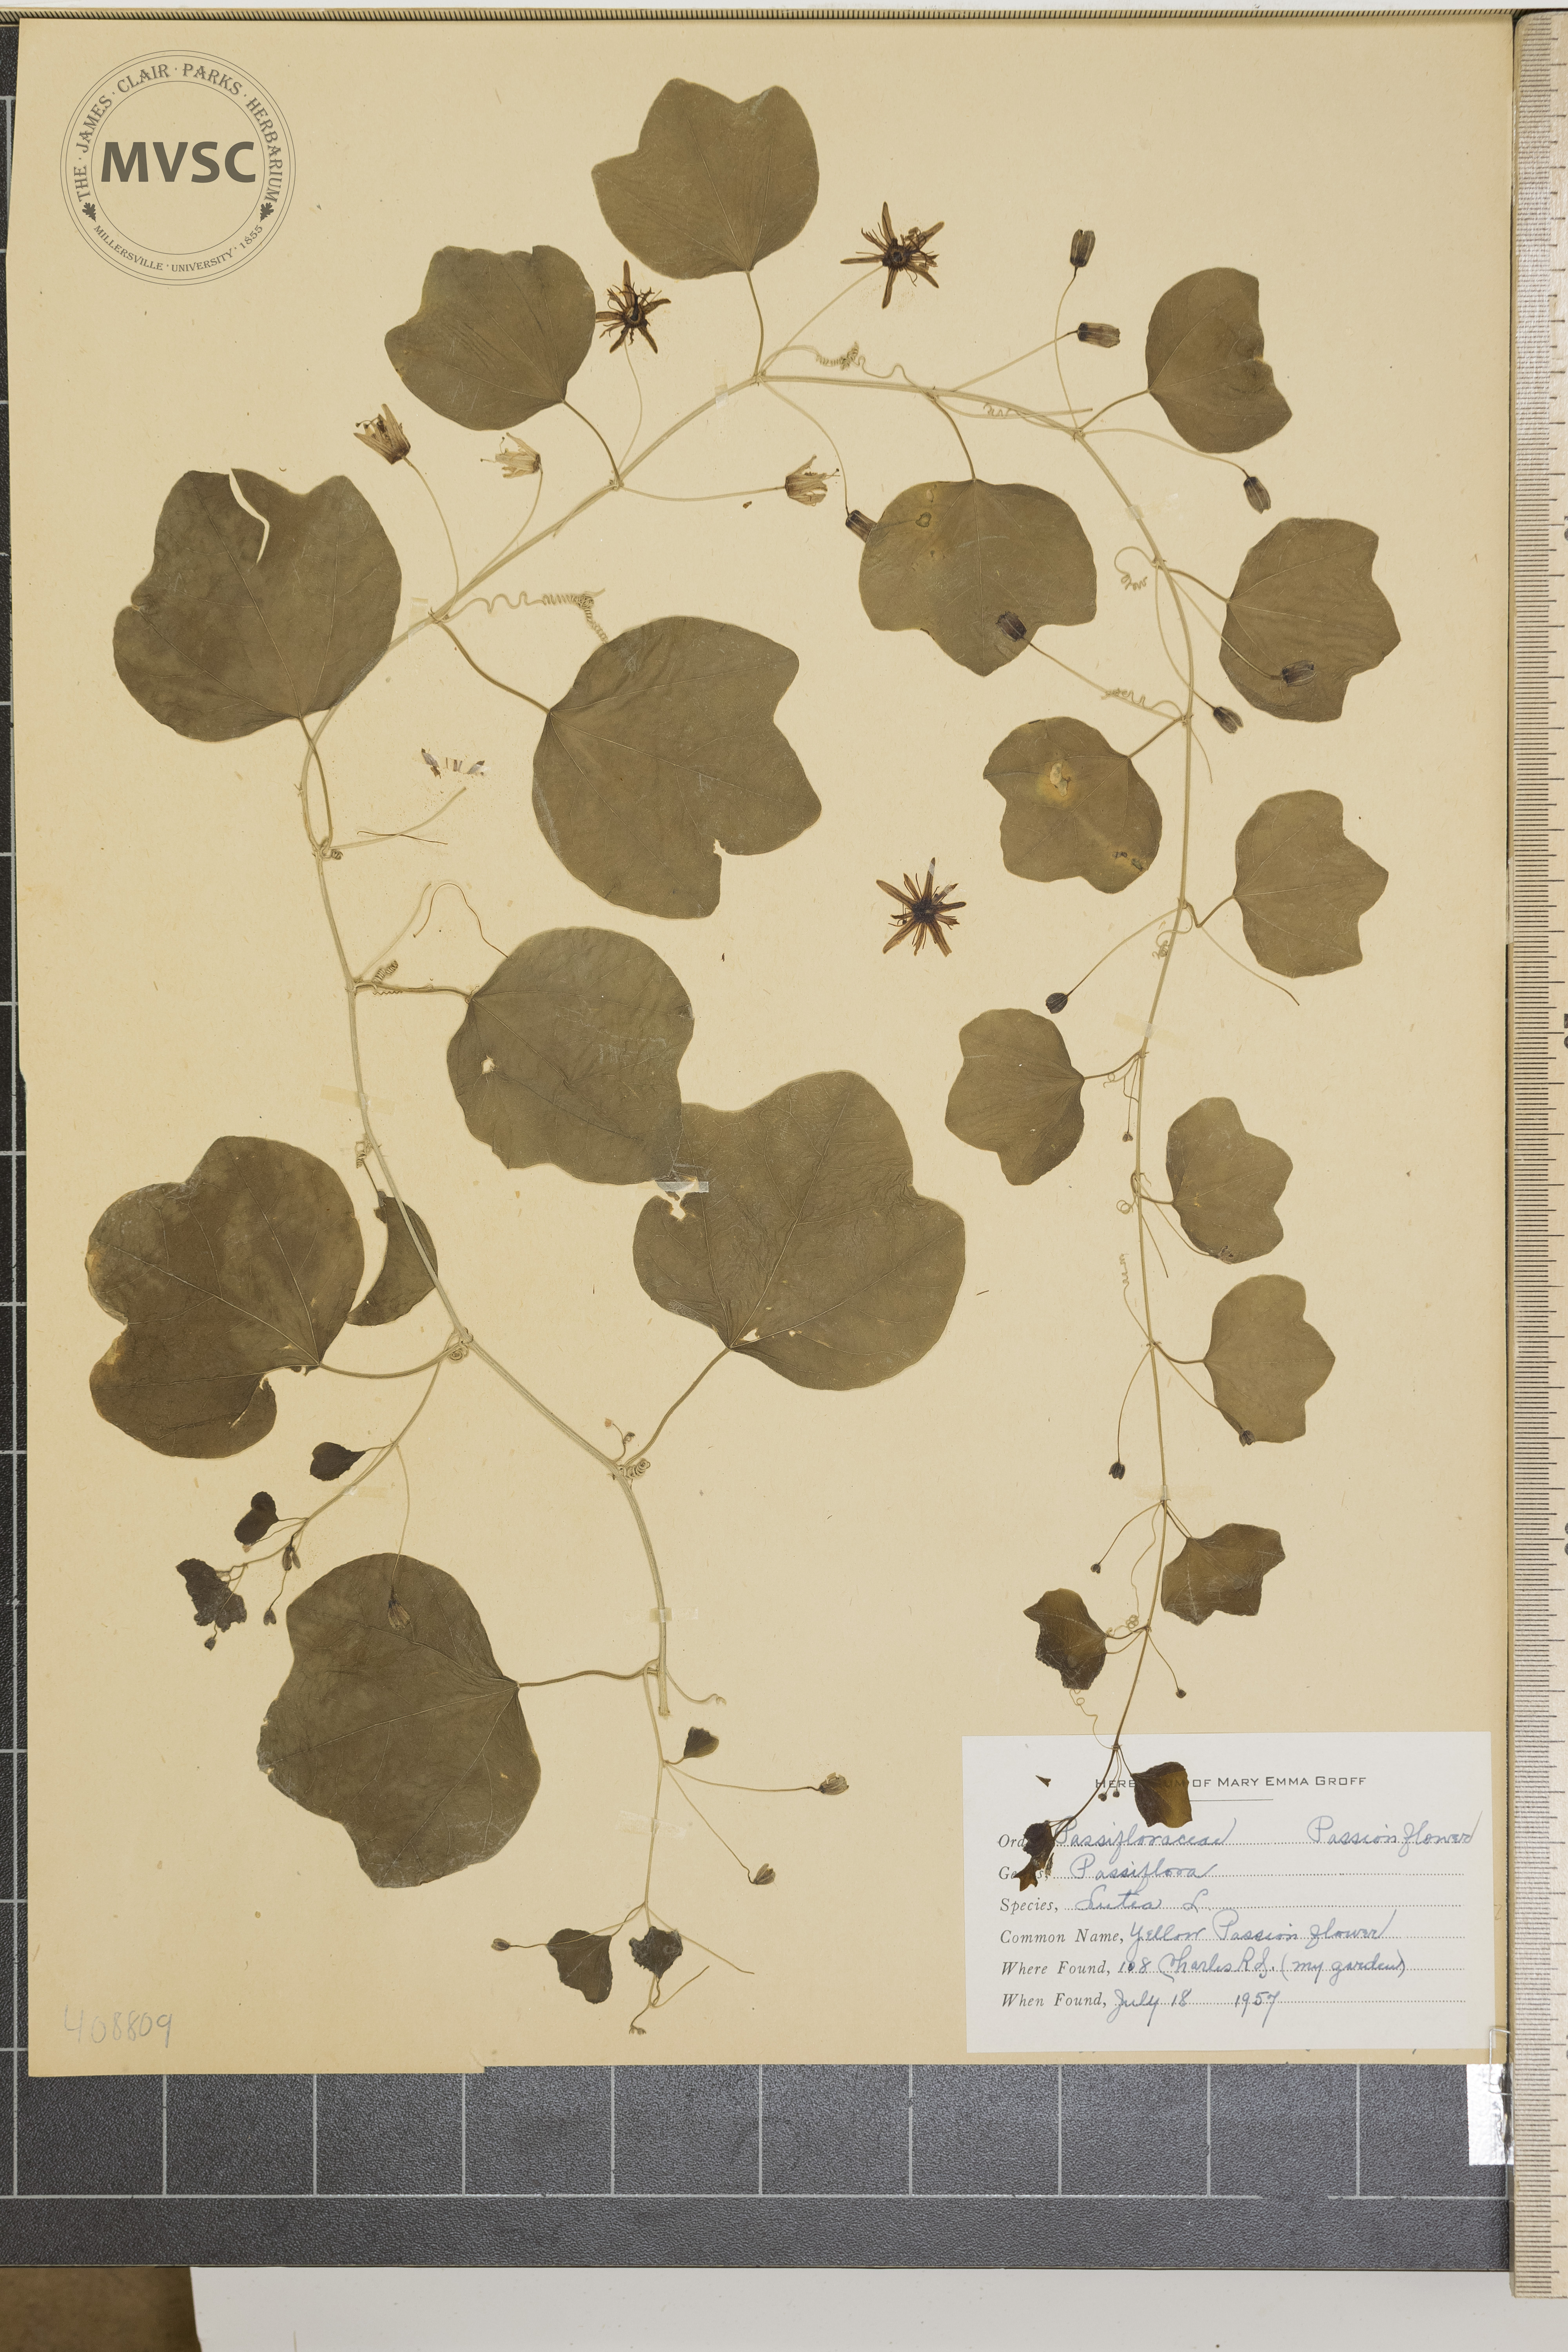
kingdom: Plantae
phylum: Tracheophyta
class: Magnoliopsida
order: Malpighiales
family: Passifloraceae
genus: Passiflora
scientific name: Passiflora lutea
